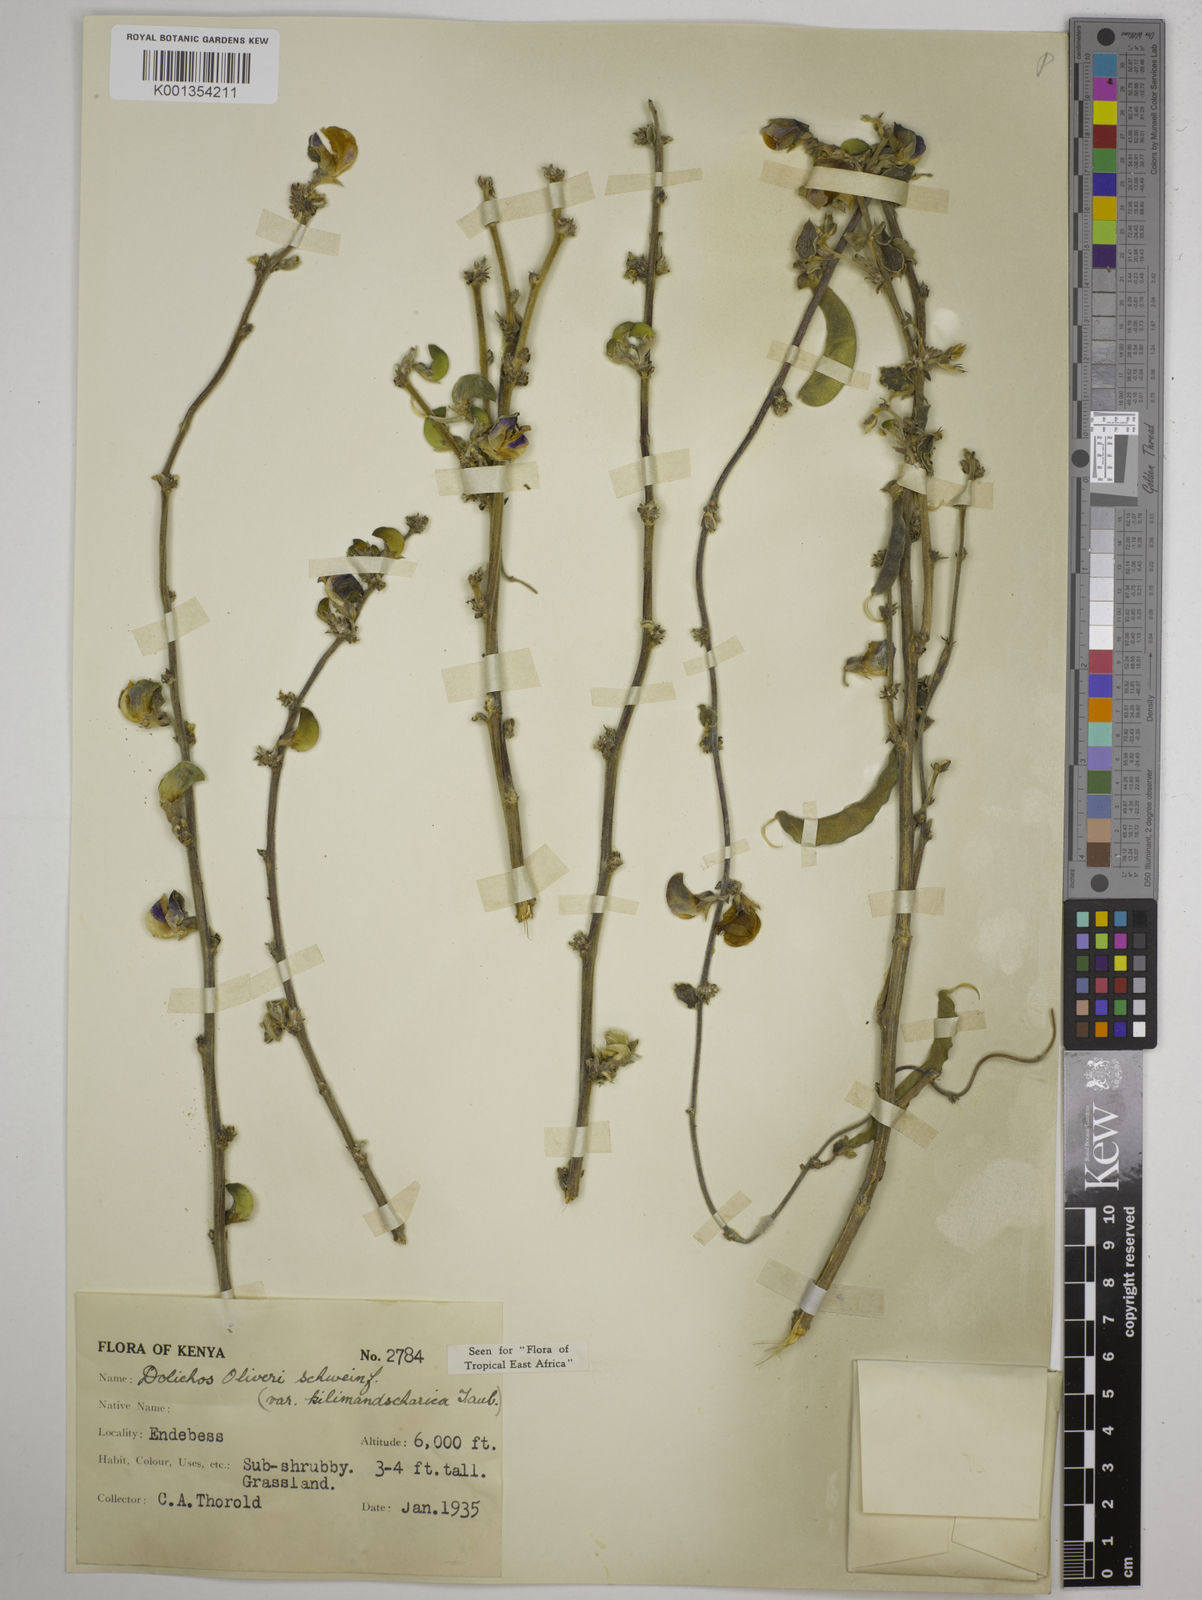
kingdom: Plantae
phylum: Tracheophyta
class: Magnoliopsida
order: Fabales
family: Fabaceae
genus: Dolichos
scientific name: Dolichos
